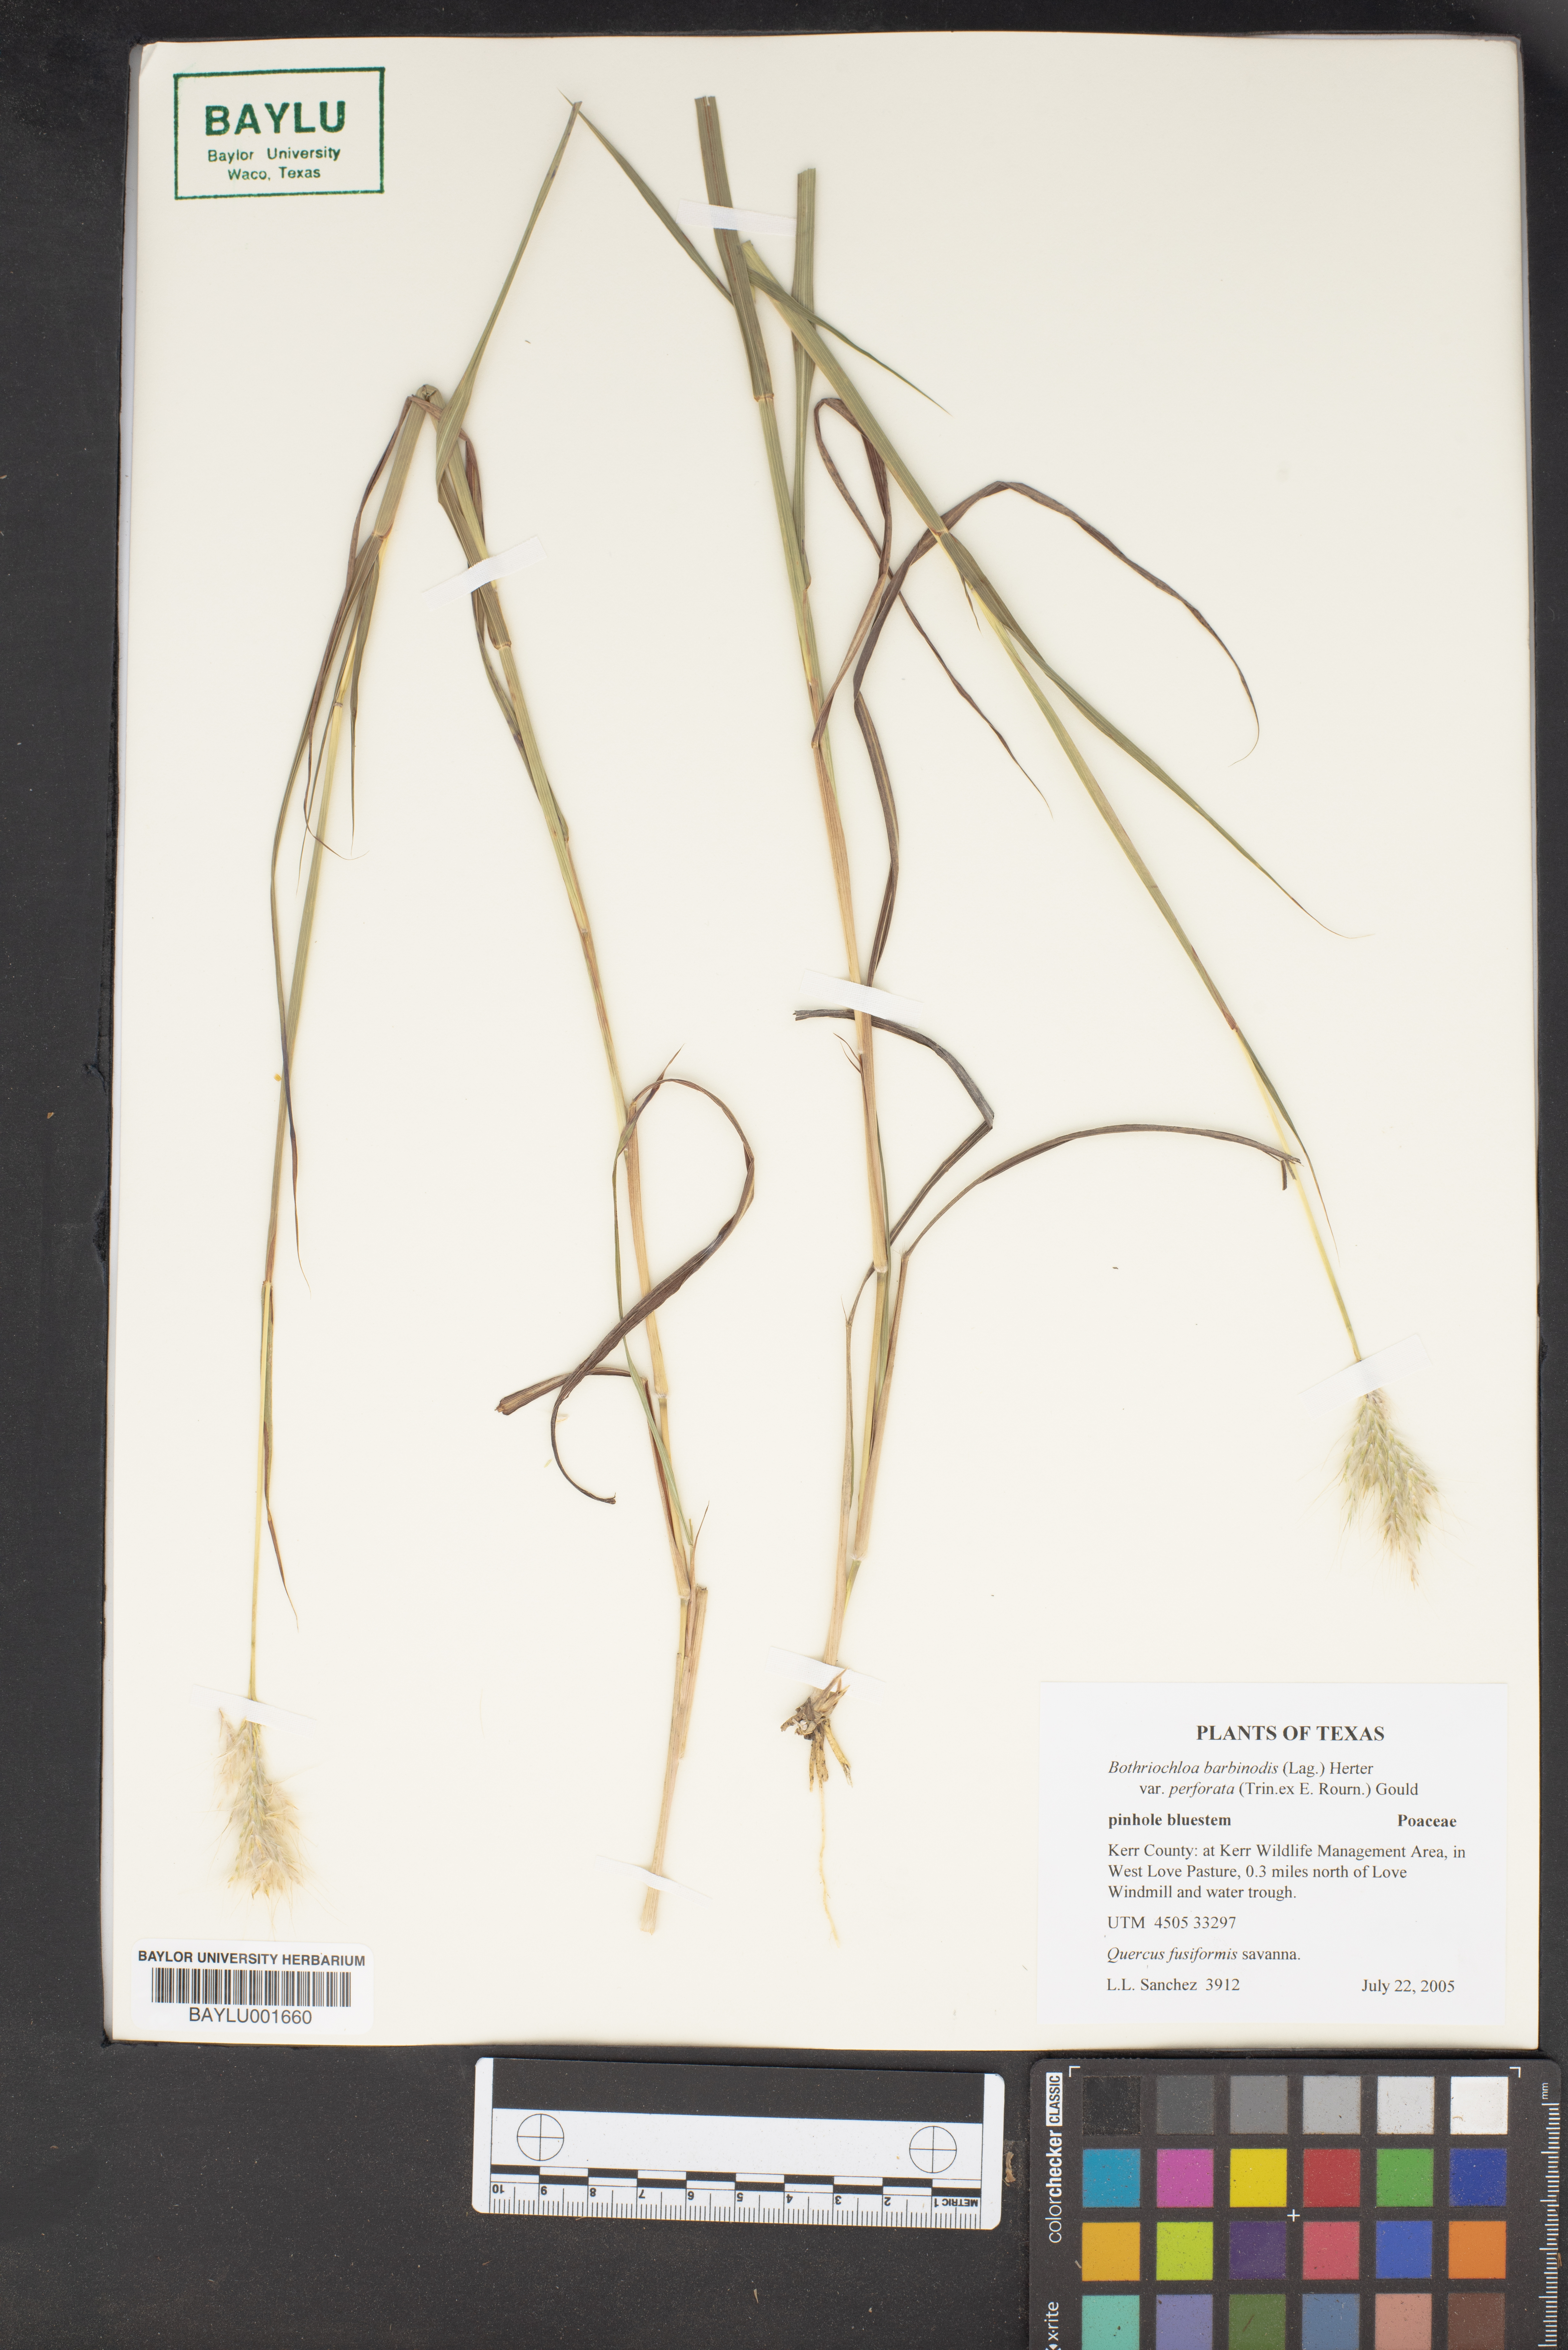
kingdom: Plantae
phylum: Tracheophyta
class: Liliopsida
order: Poales
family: Poaceae
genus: Bothriochloa
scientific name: Bothriochloa barbinodis
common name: Cane bluestem
